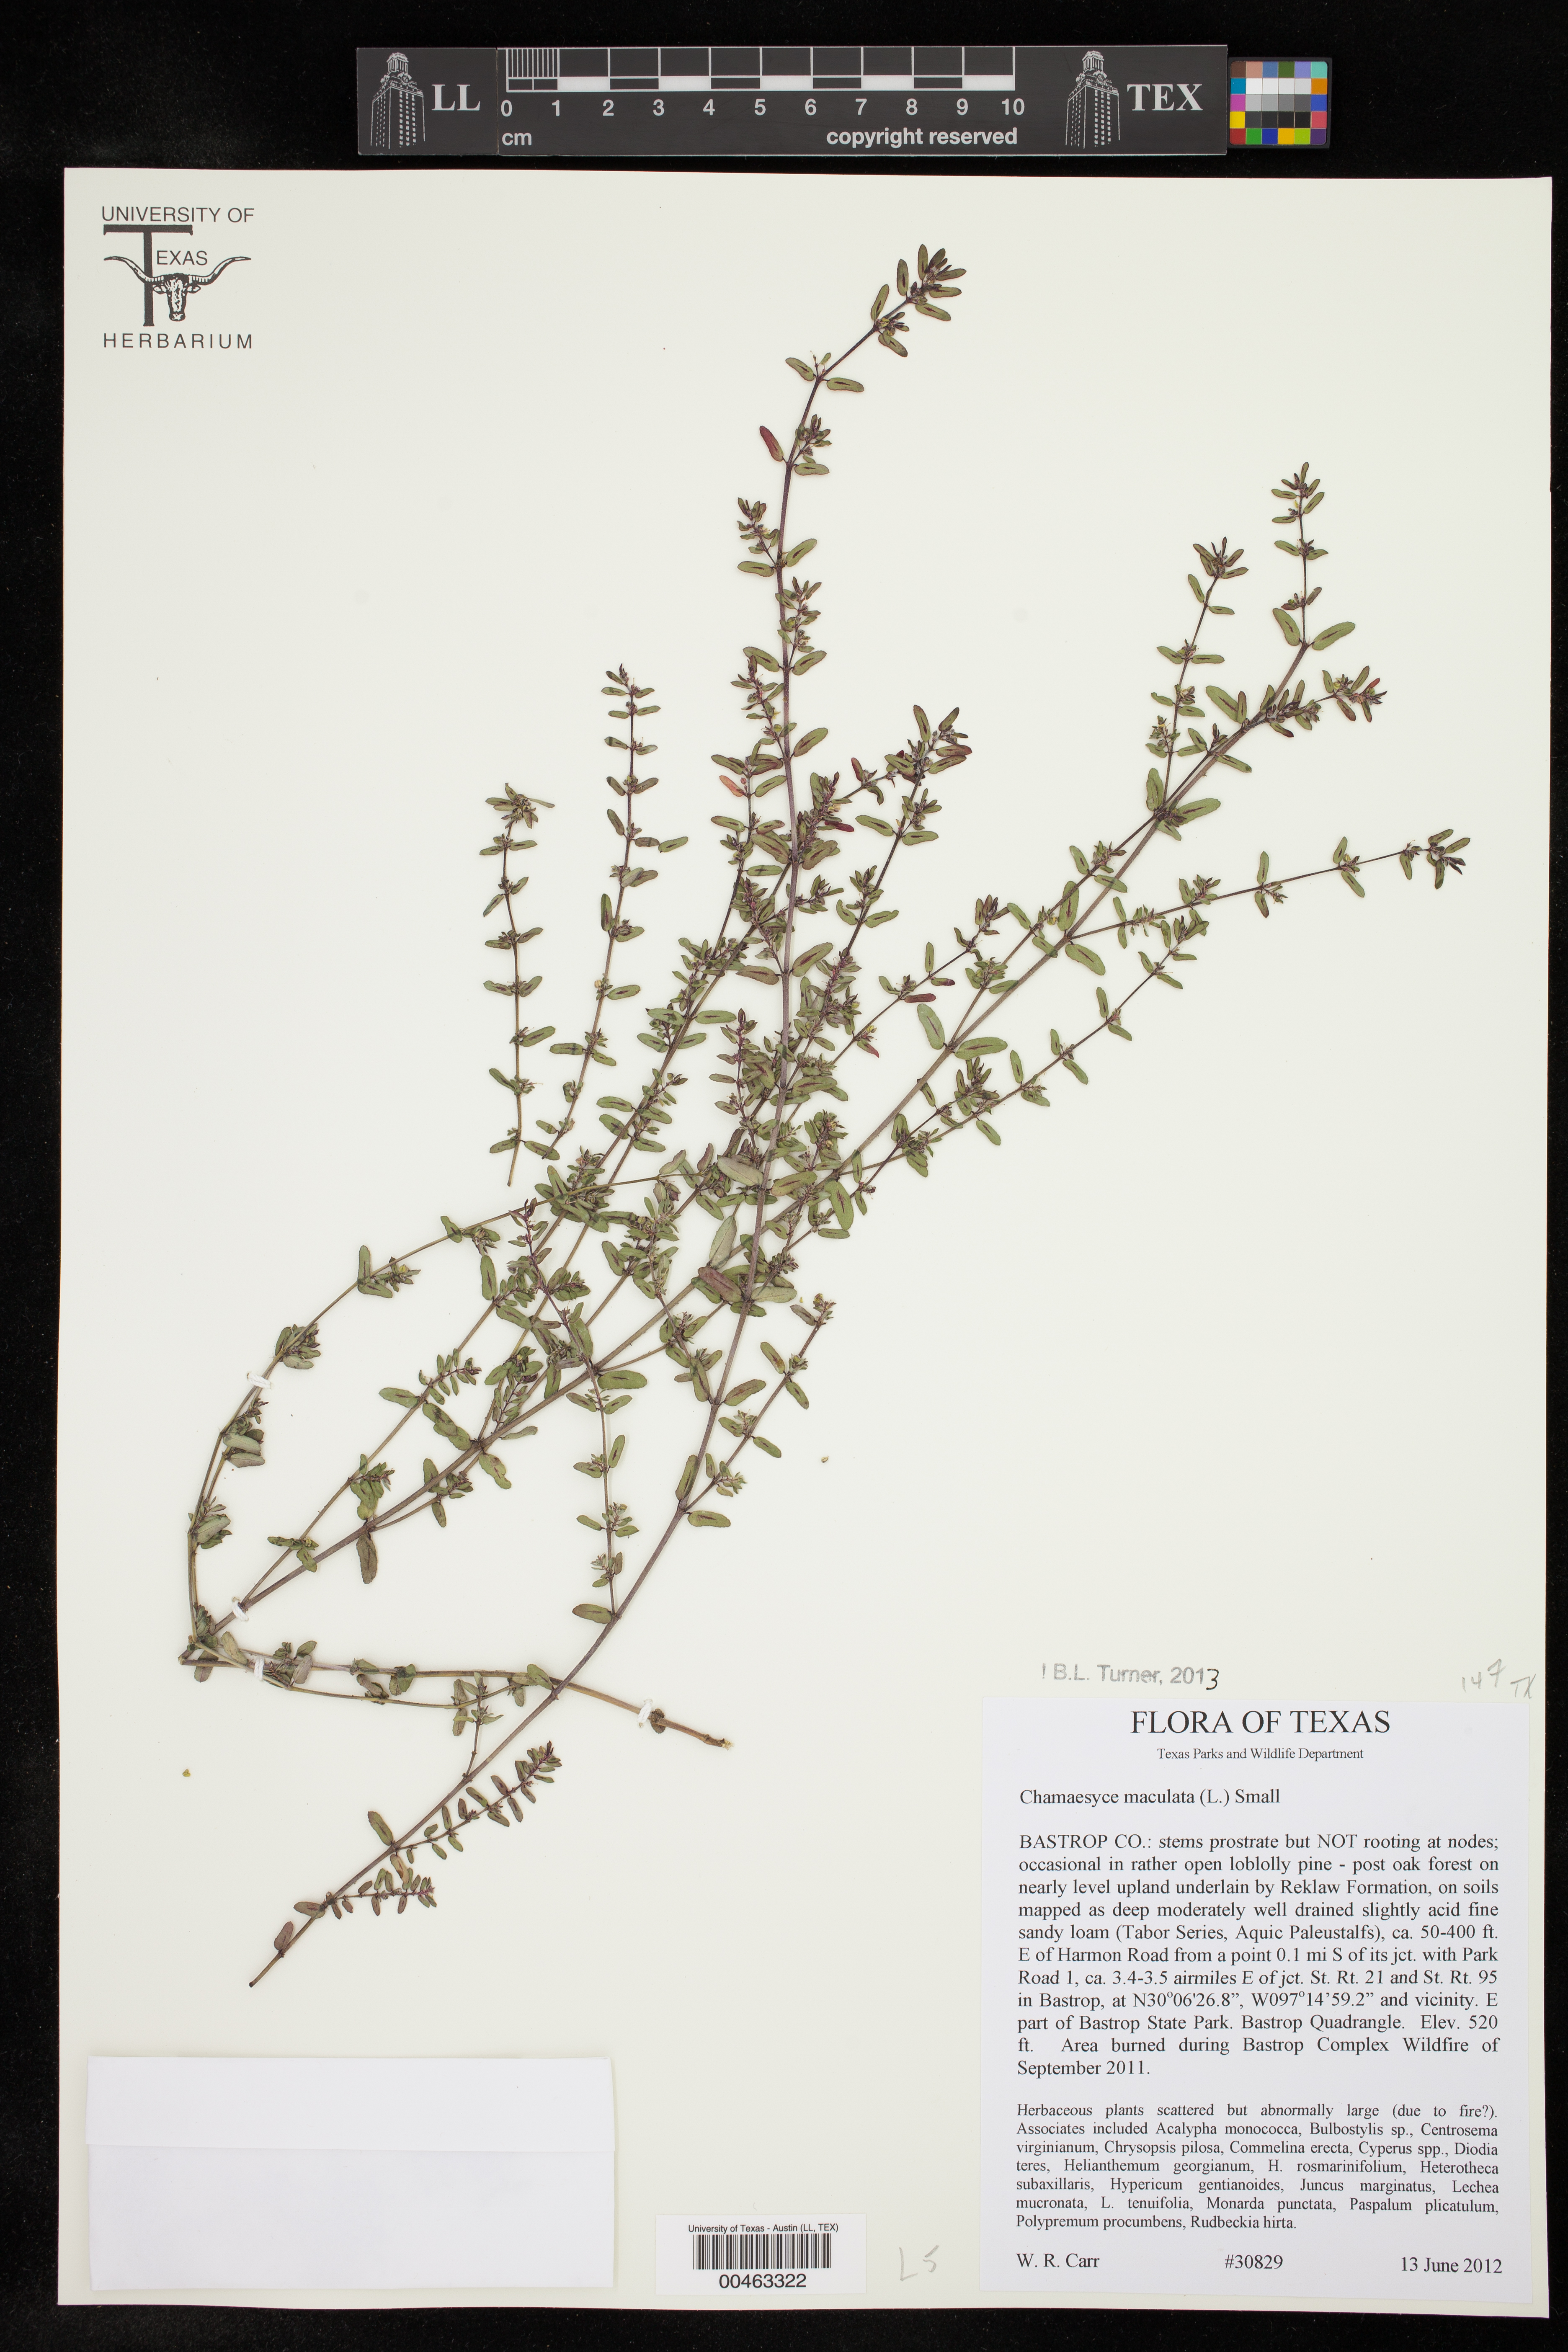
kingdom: Plantae
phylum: Tracheophyta
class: Magnoliopsida
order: Malpighiales
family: Euphorbiaceae
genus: Euphorbia
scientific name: Euphorbia maculata
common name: Spotted spurge
